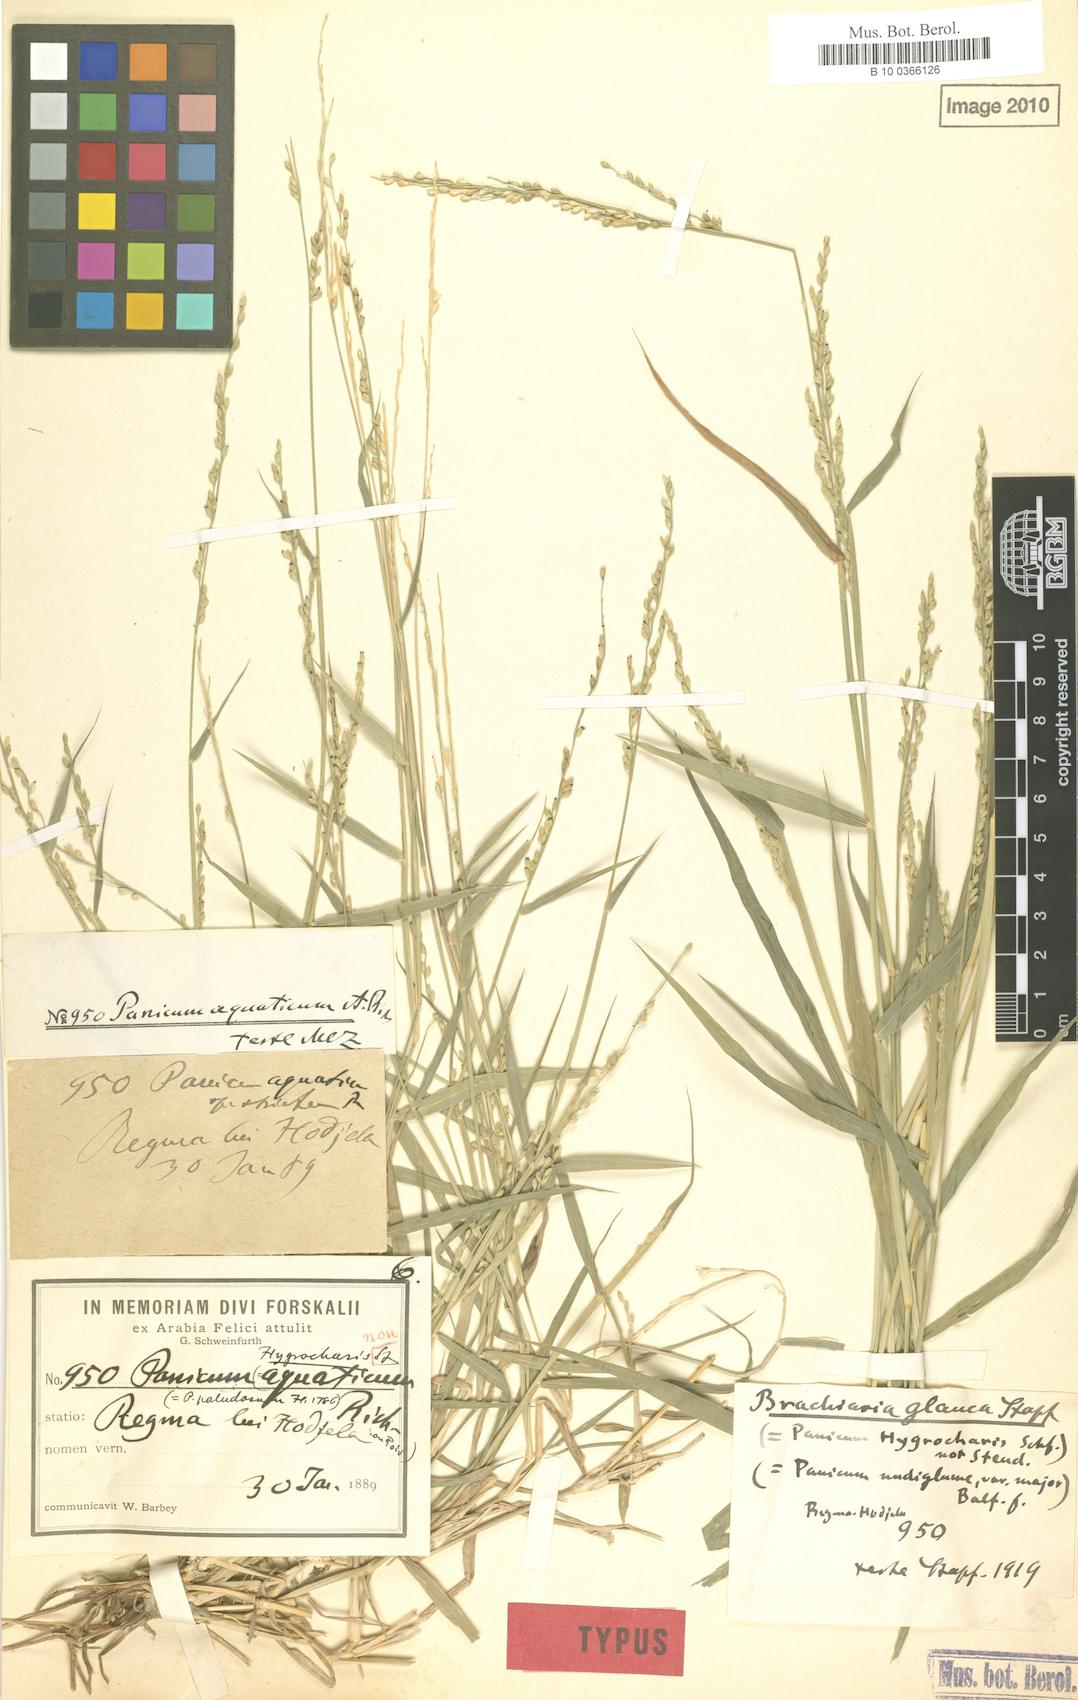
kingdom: Plantae
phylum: Tracheophyta
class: Liliopsida
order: Poales
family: Poaceae
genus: Panicum
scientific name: Panicum hygrocharis
